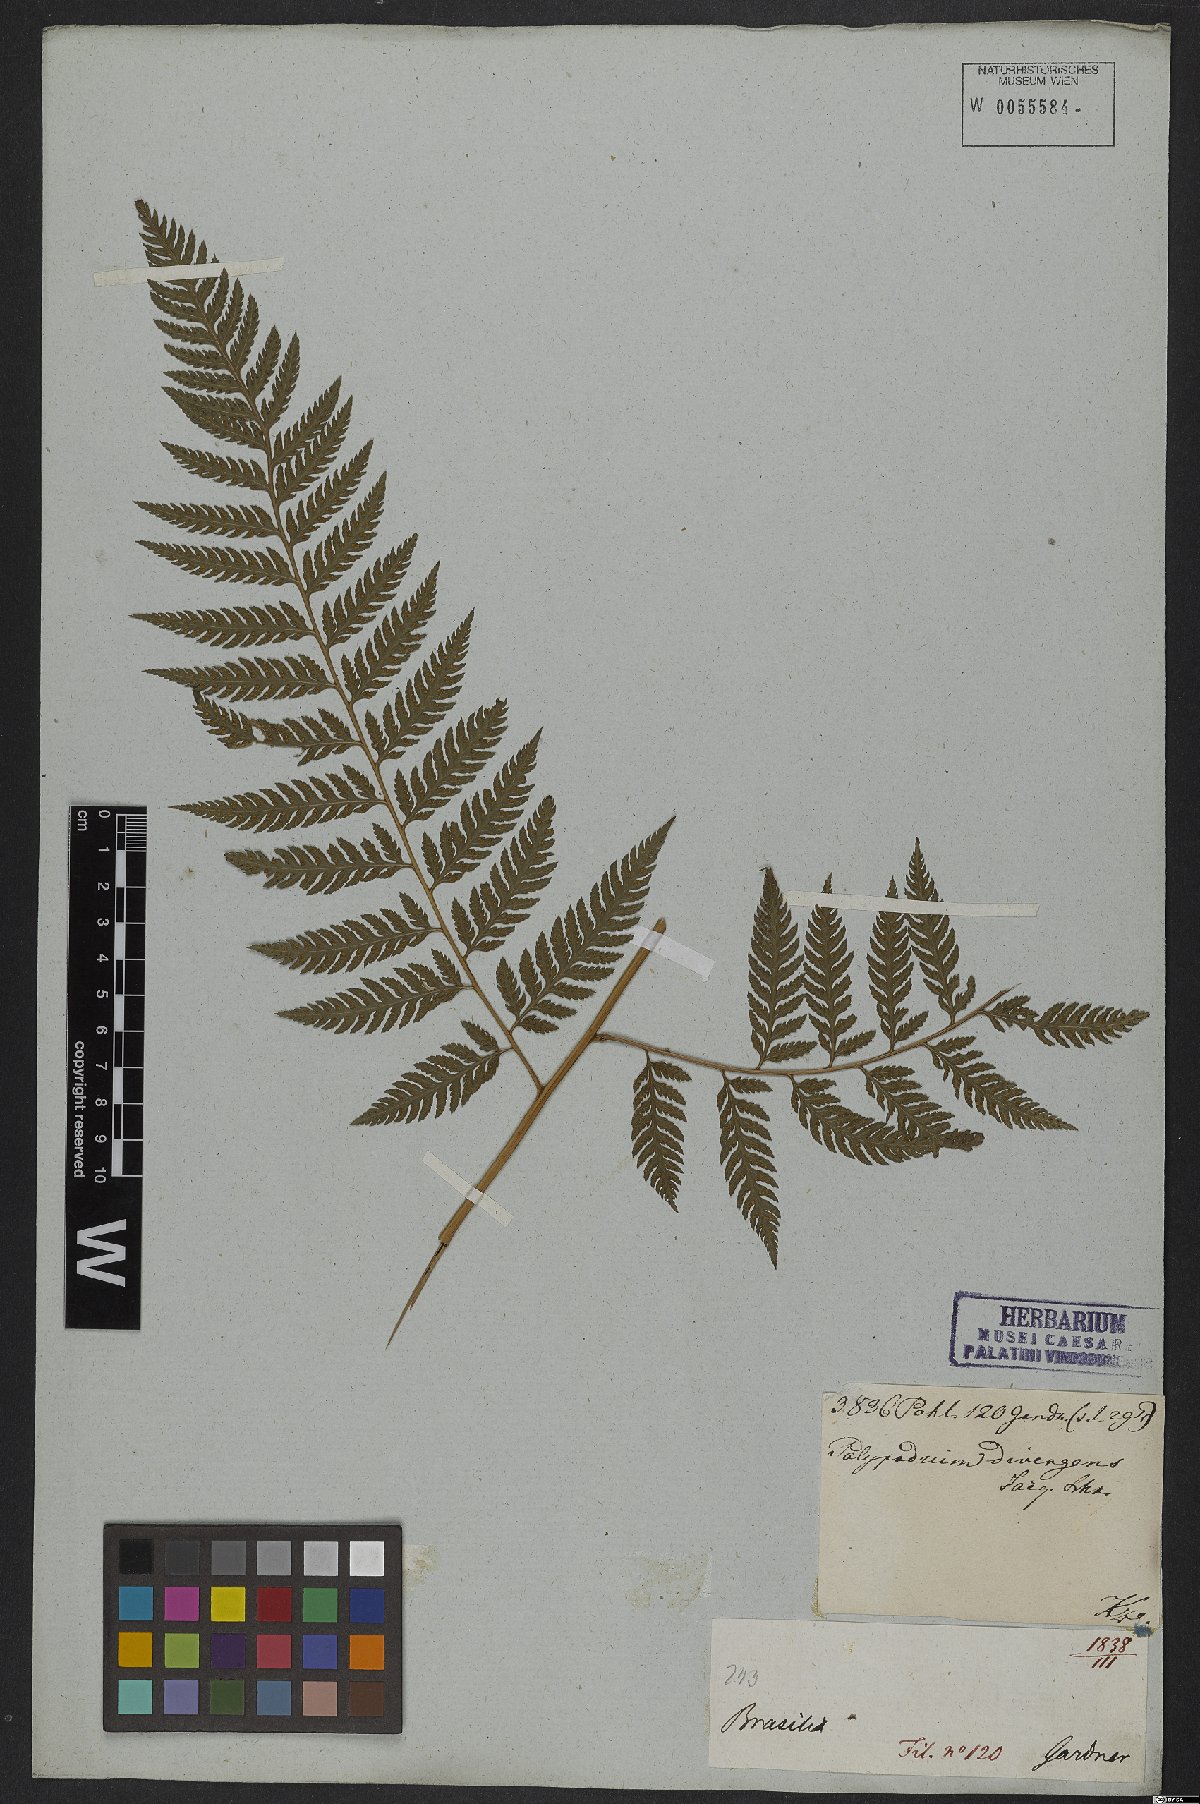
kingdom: Plantae
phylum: Tracheophyta
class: Polypodiopsida
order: Polypodiales
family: Dryopteridaceae
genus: Parapolystichum
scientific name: Parapolystichum effusum
